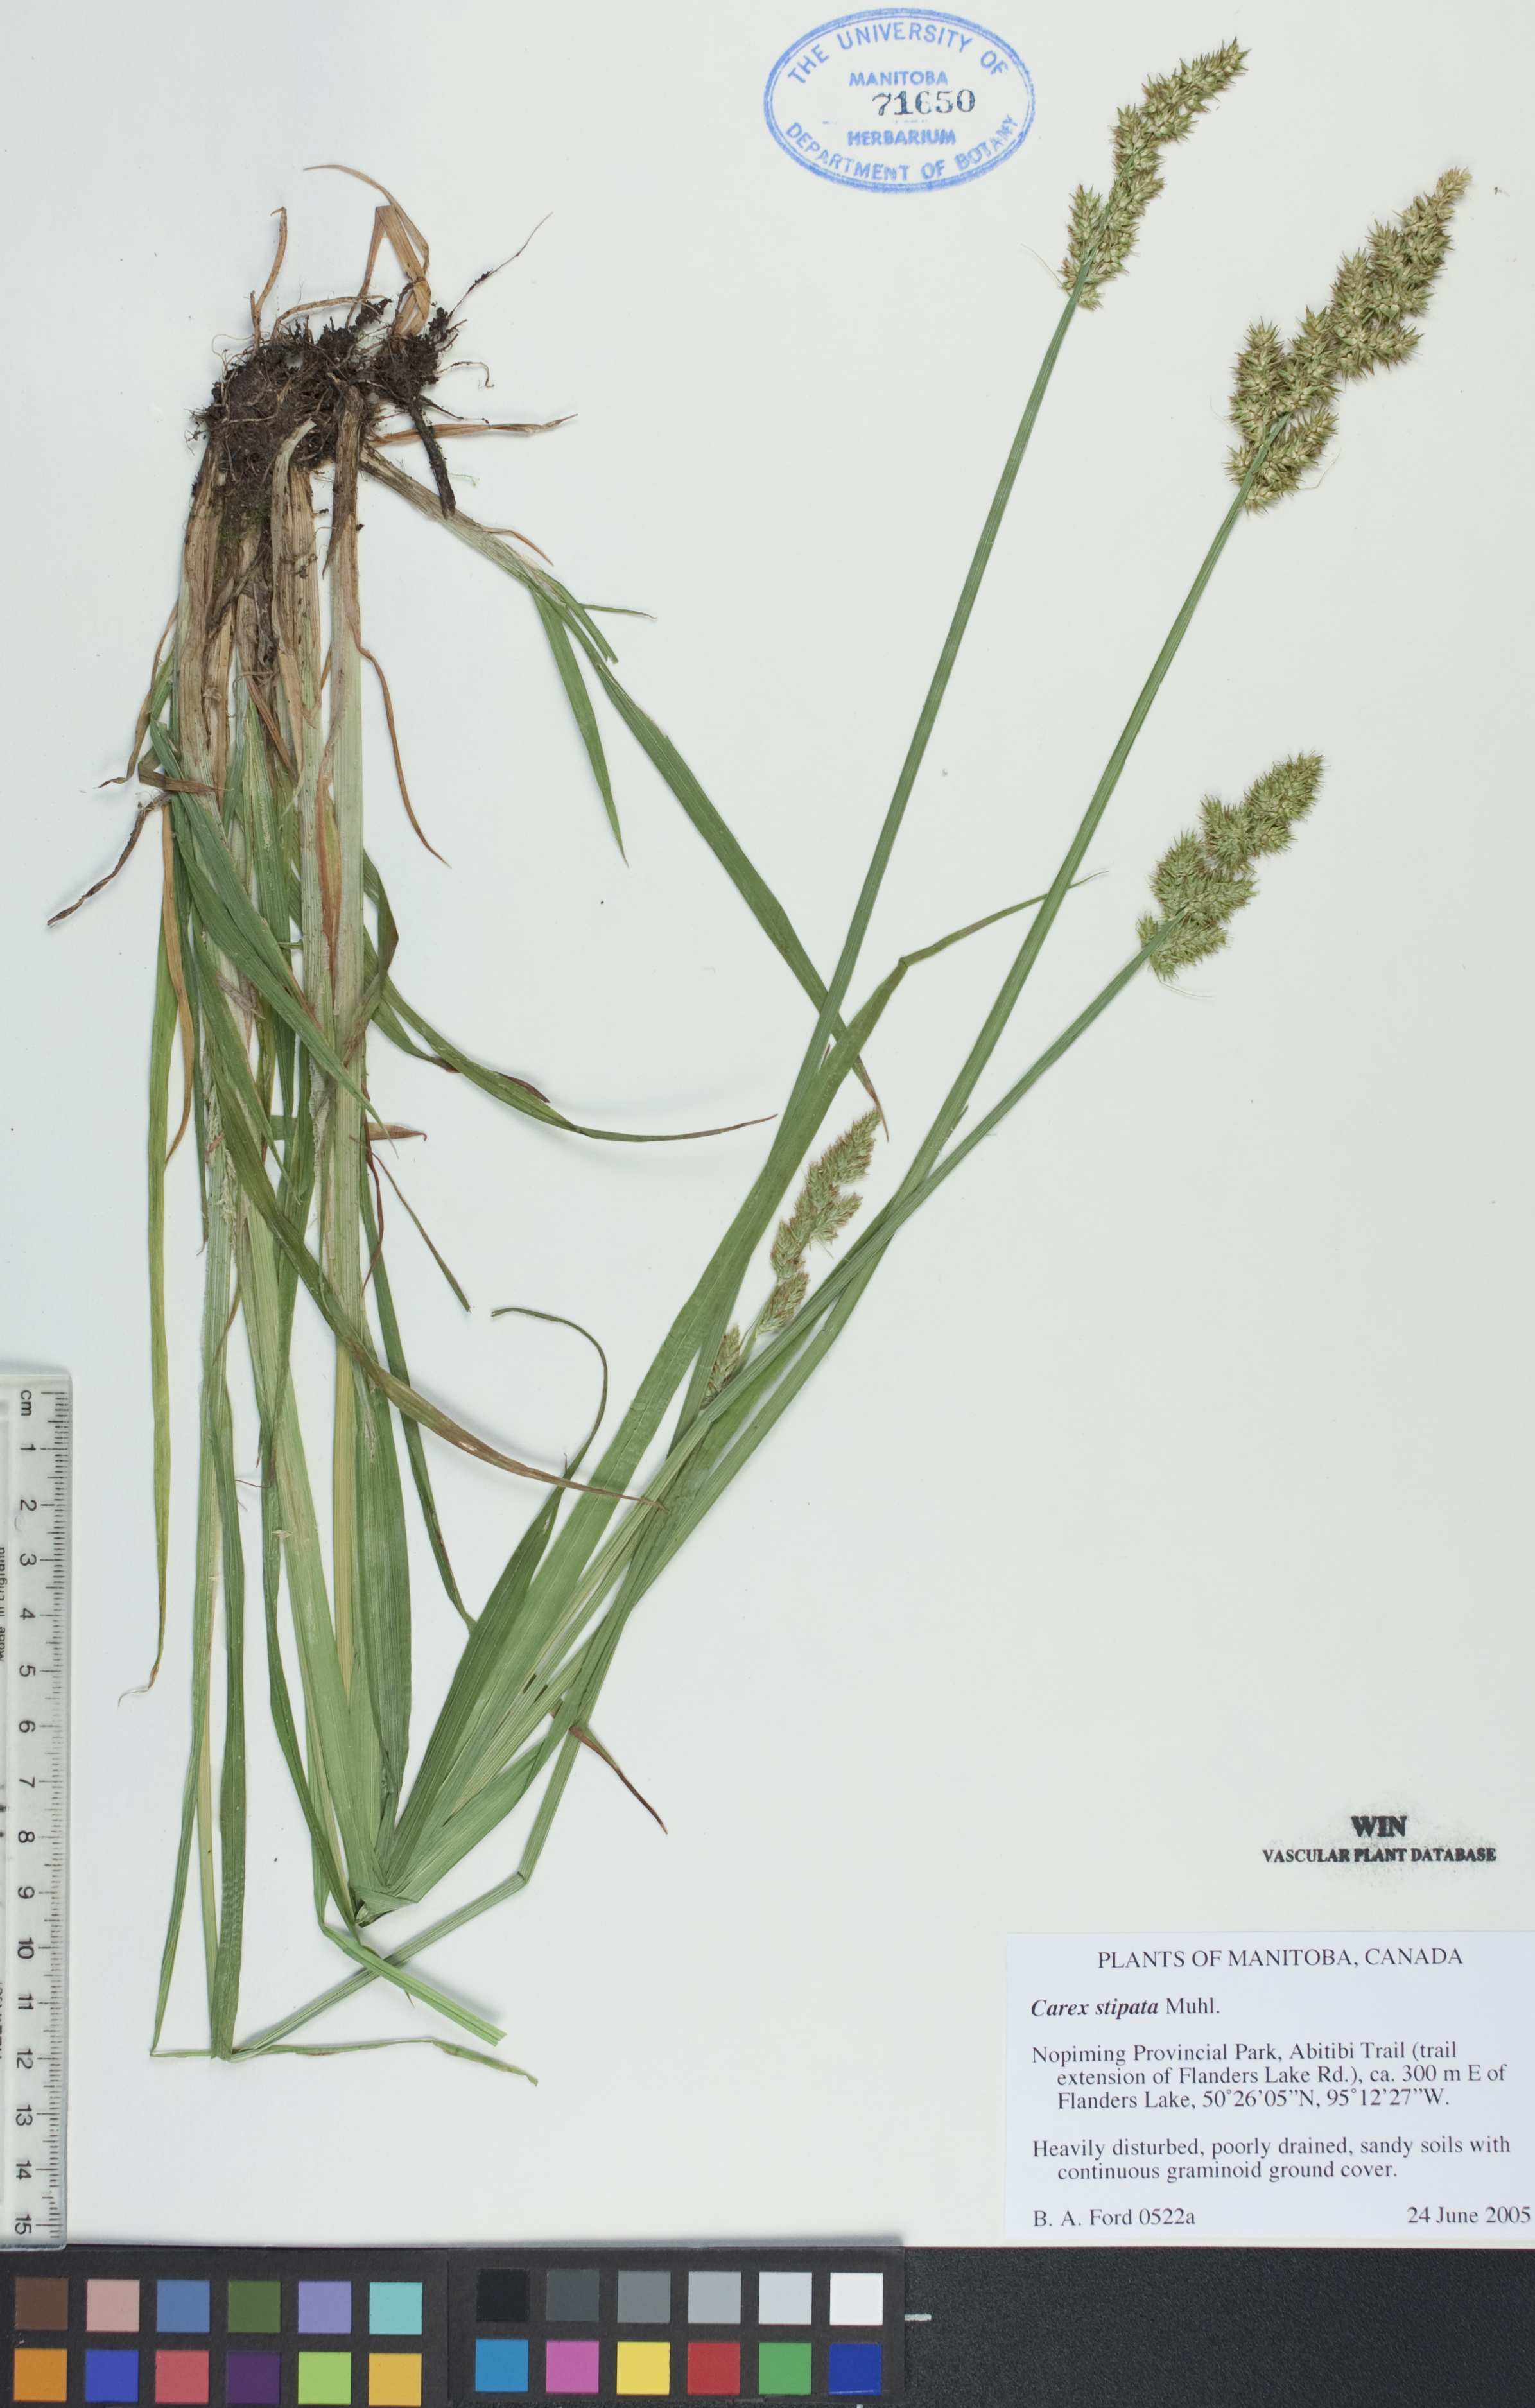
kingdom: Plantae
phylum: Tracheophyta
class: Liliopsida
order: Poales
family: Cyperaceae
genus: Carex
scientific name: Carex stipata
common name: Awl-fruited sedge
